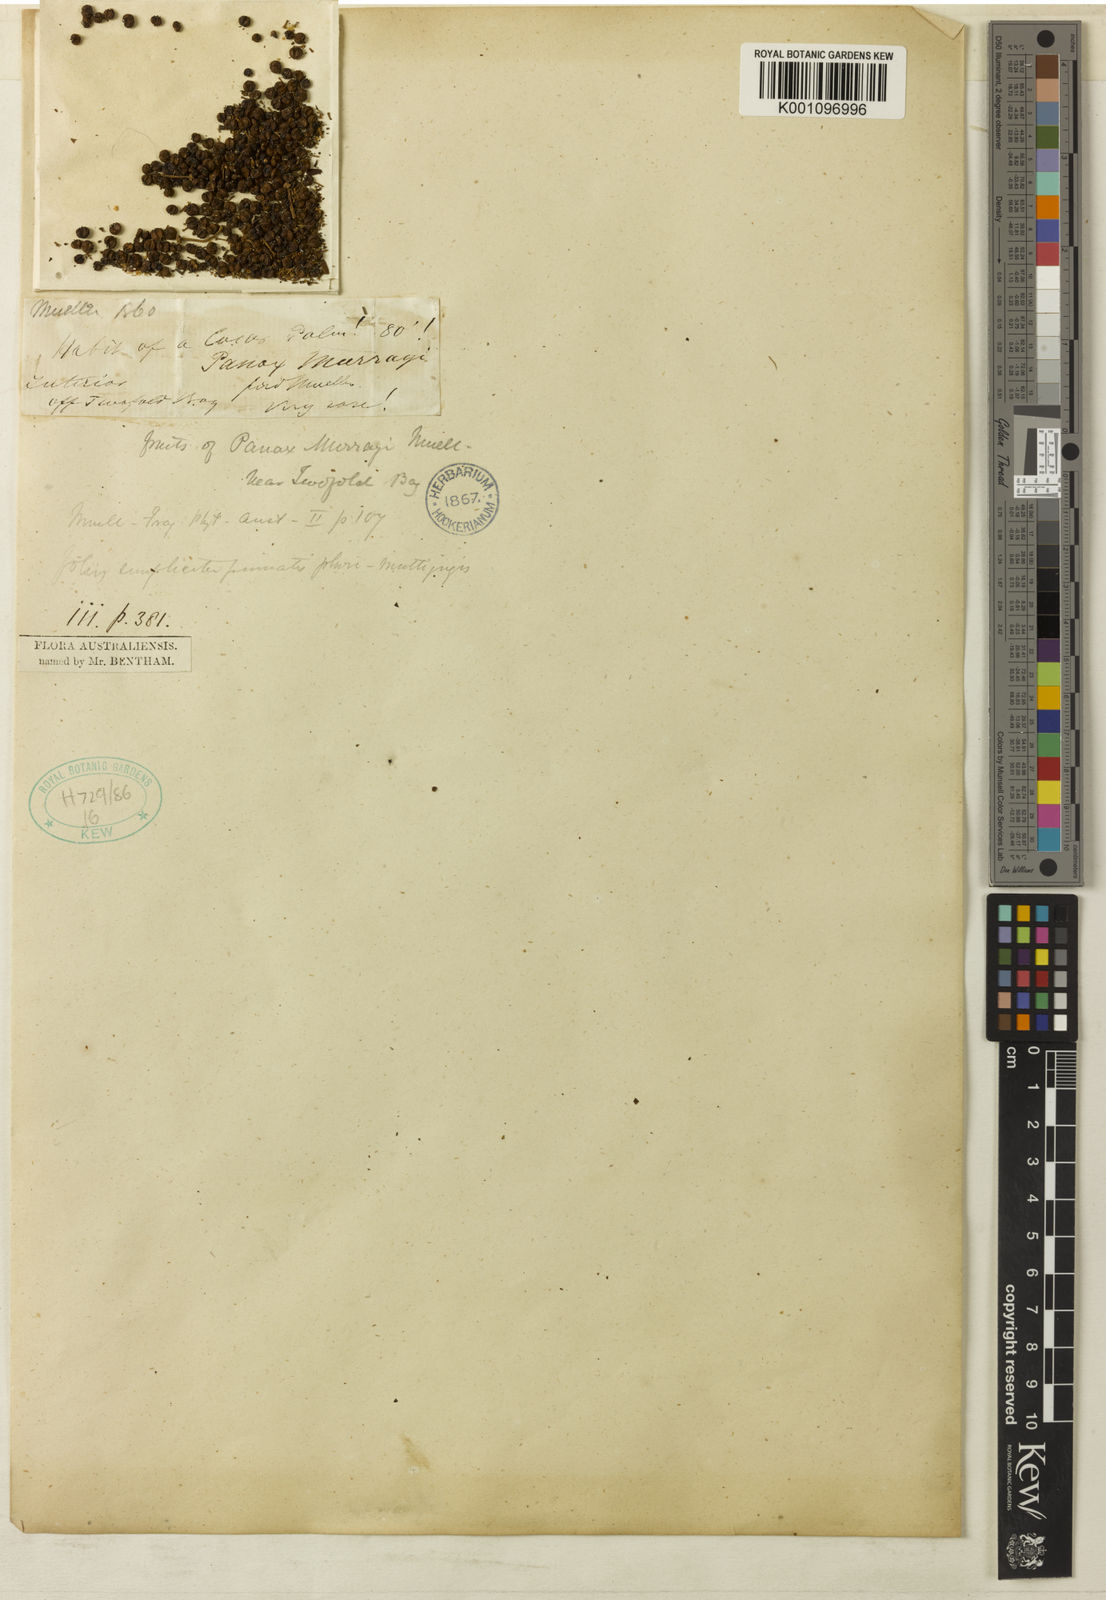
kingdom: Plantae
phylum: Tracheophyta
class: Magnoliopsida
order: Apiales
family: Araliaceae
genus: Polyscias
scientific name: Polyscias murrayi
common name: Pencil cedar
